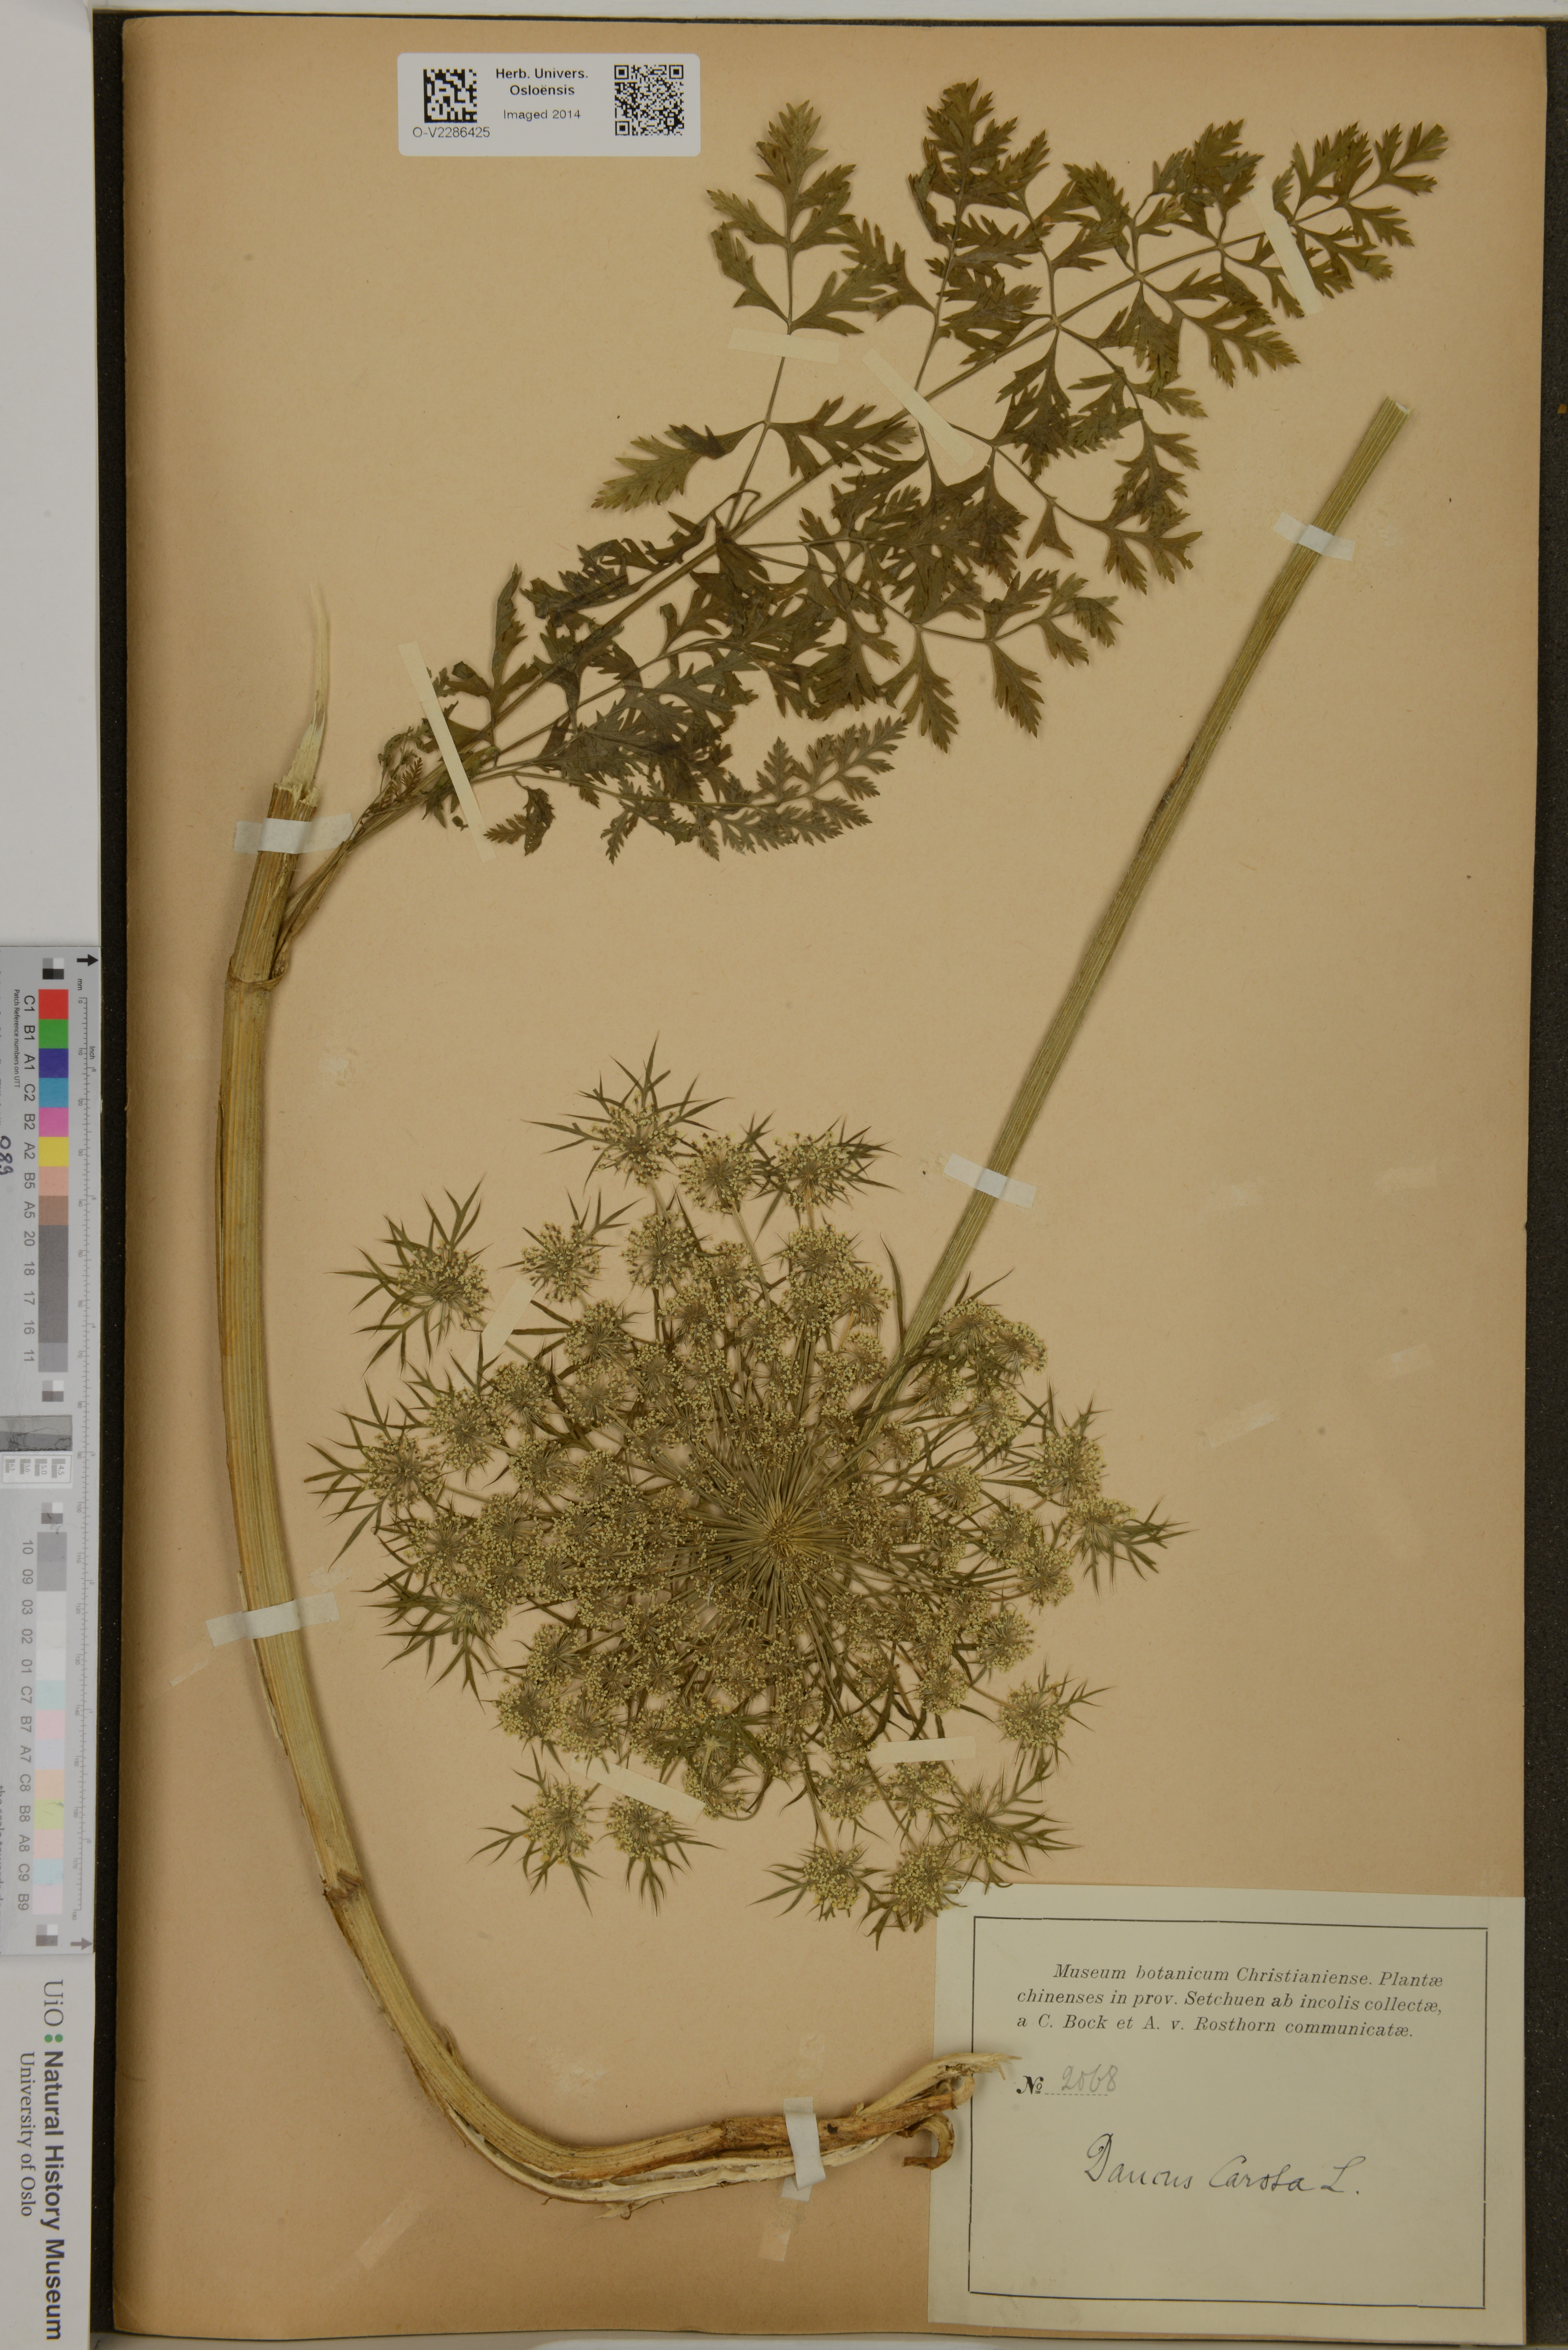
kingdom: Plantae
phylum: Tracheophyta
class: Magnoliopsida
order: Apiales
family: Apiaceae
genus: Daucus
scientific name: Daucus carota
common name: Wild carrot
